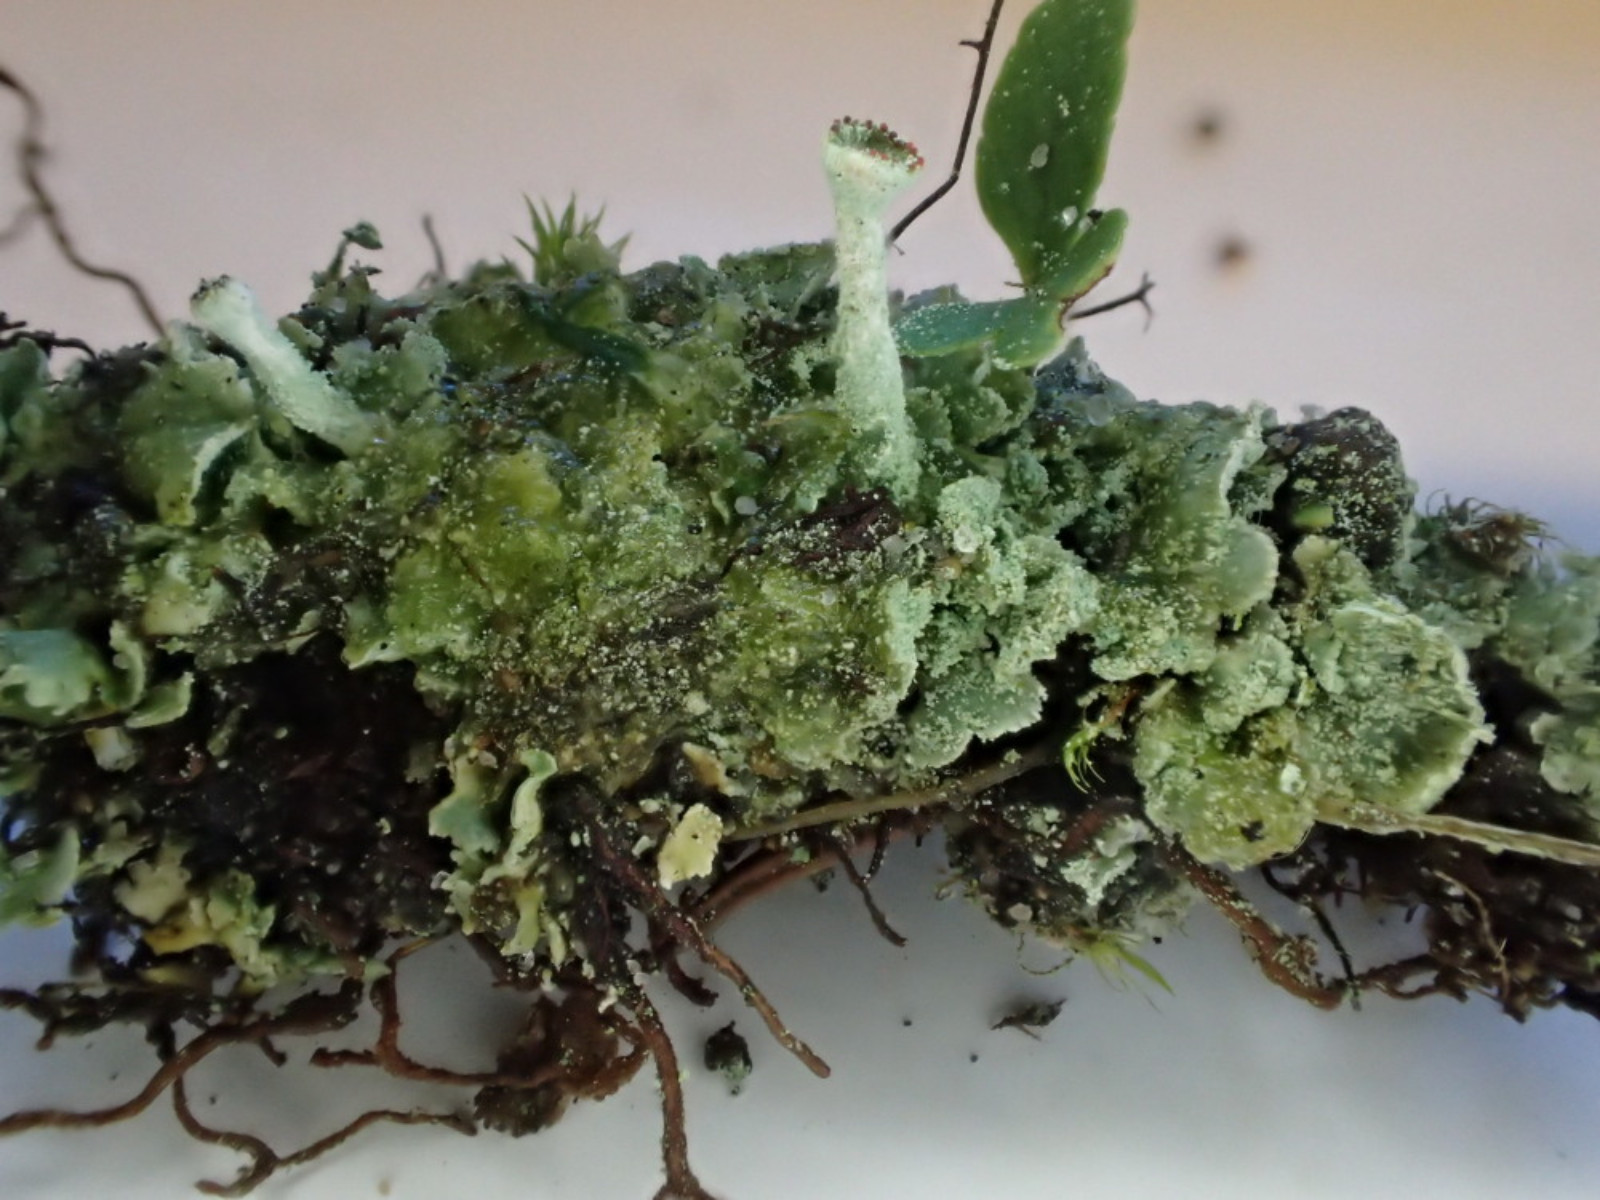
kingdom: Fungi
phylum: Ascomycota
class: Lecanoromycetes
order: Lecanorales
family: Cladoniaceae
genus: Cladonia
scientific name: Cladonia digitata
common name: finger-bægerlav
